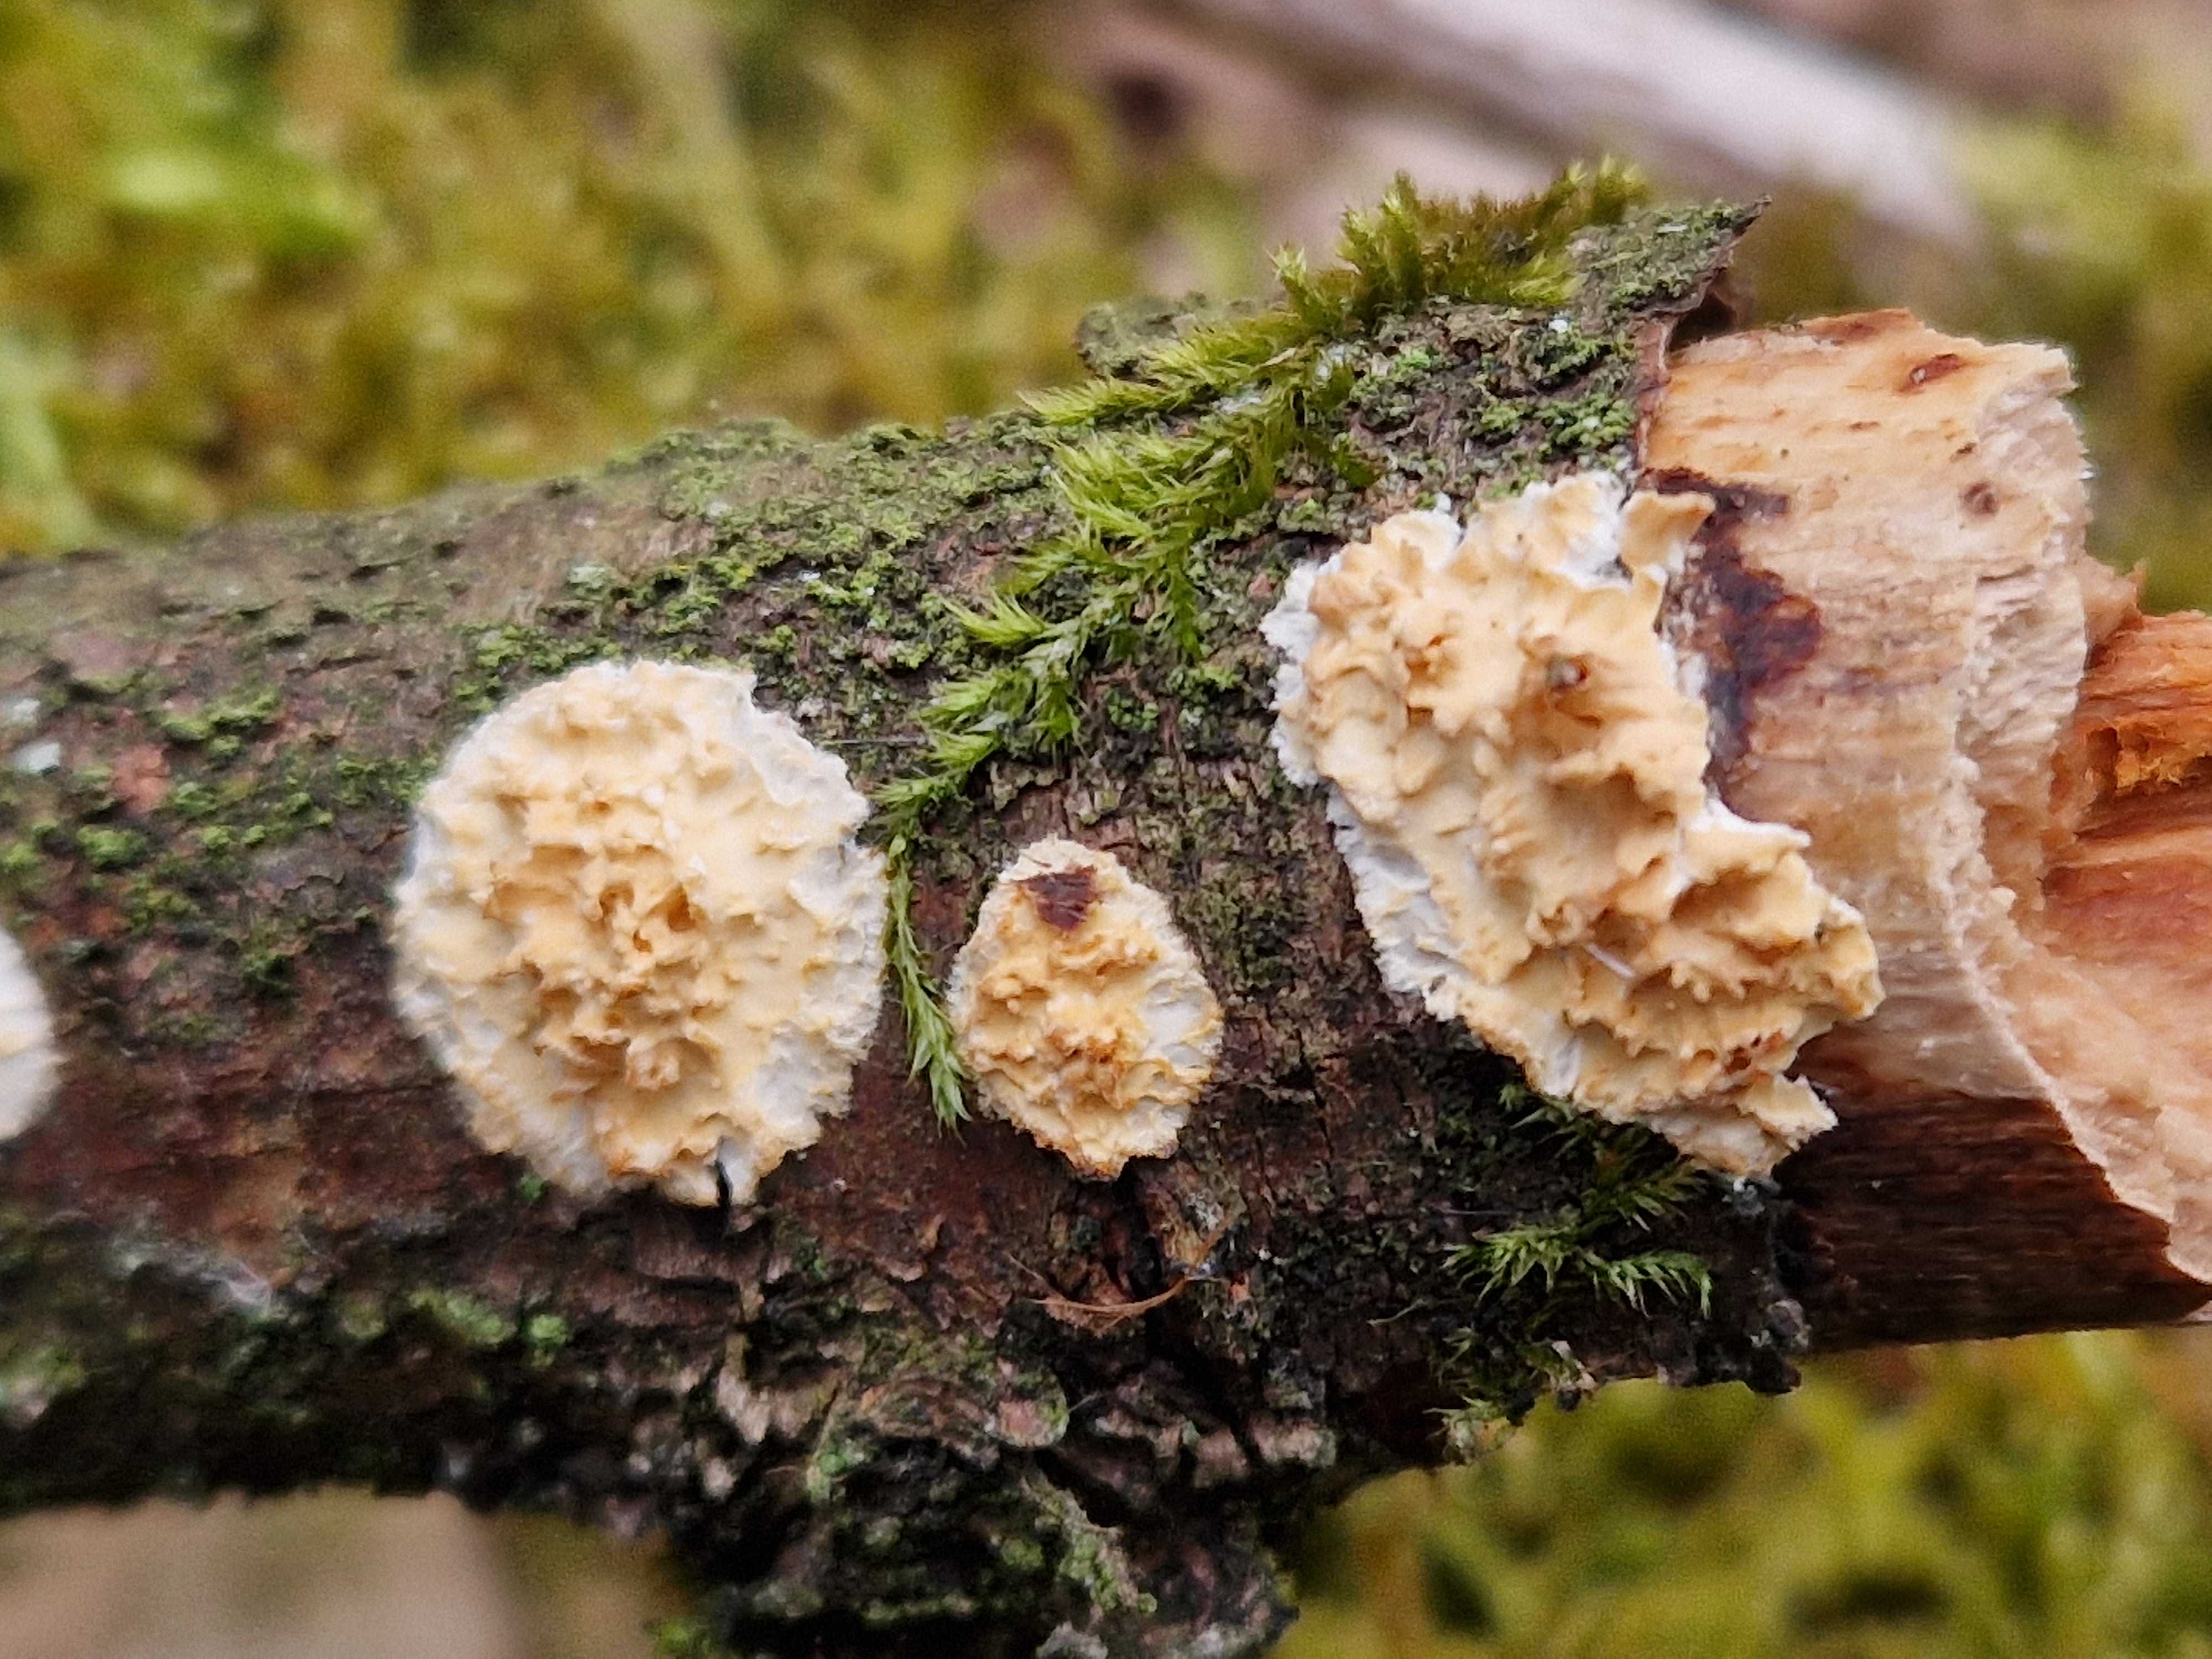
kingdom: Fungi
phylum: Basidiomycota
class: Agaricomycetes
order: Hymenochaetales
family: Schizoporaceae
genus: Xylodon
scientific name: Xylodon radula
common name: grovtandet kalkskind
